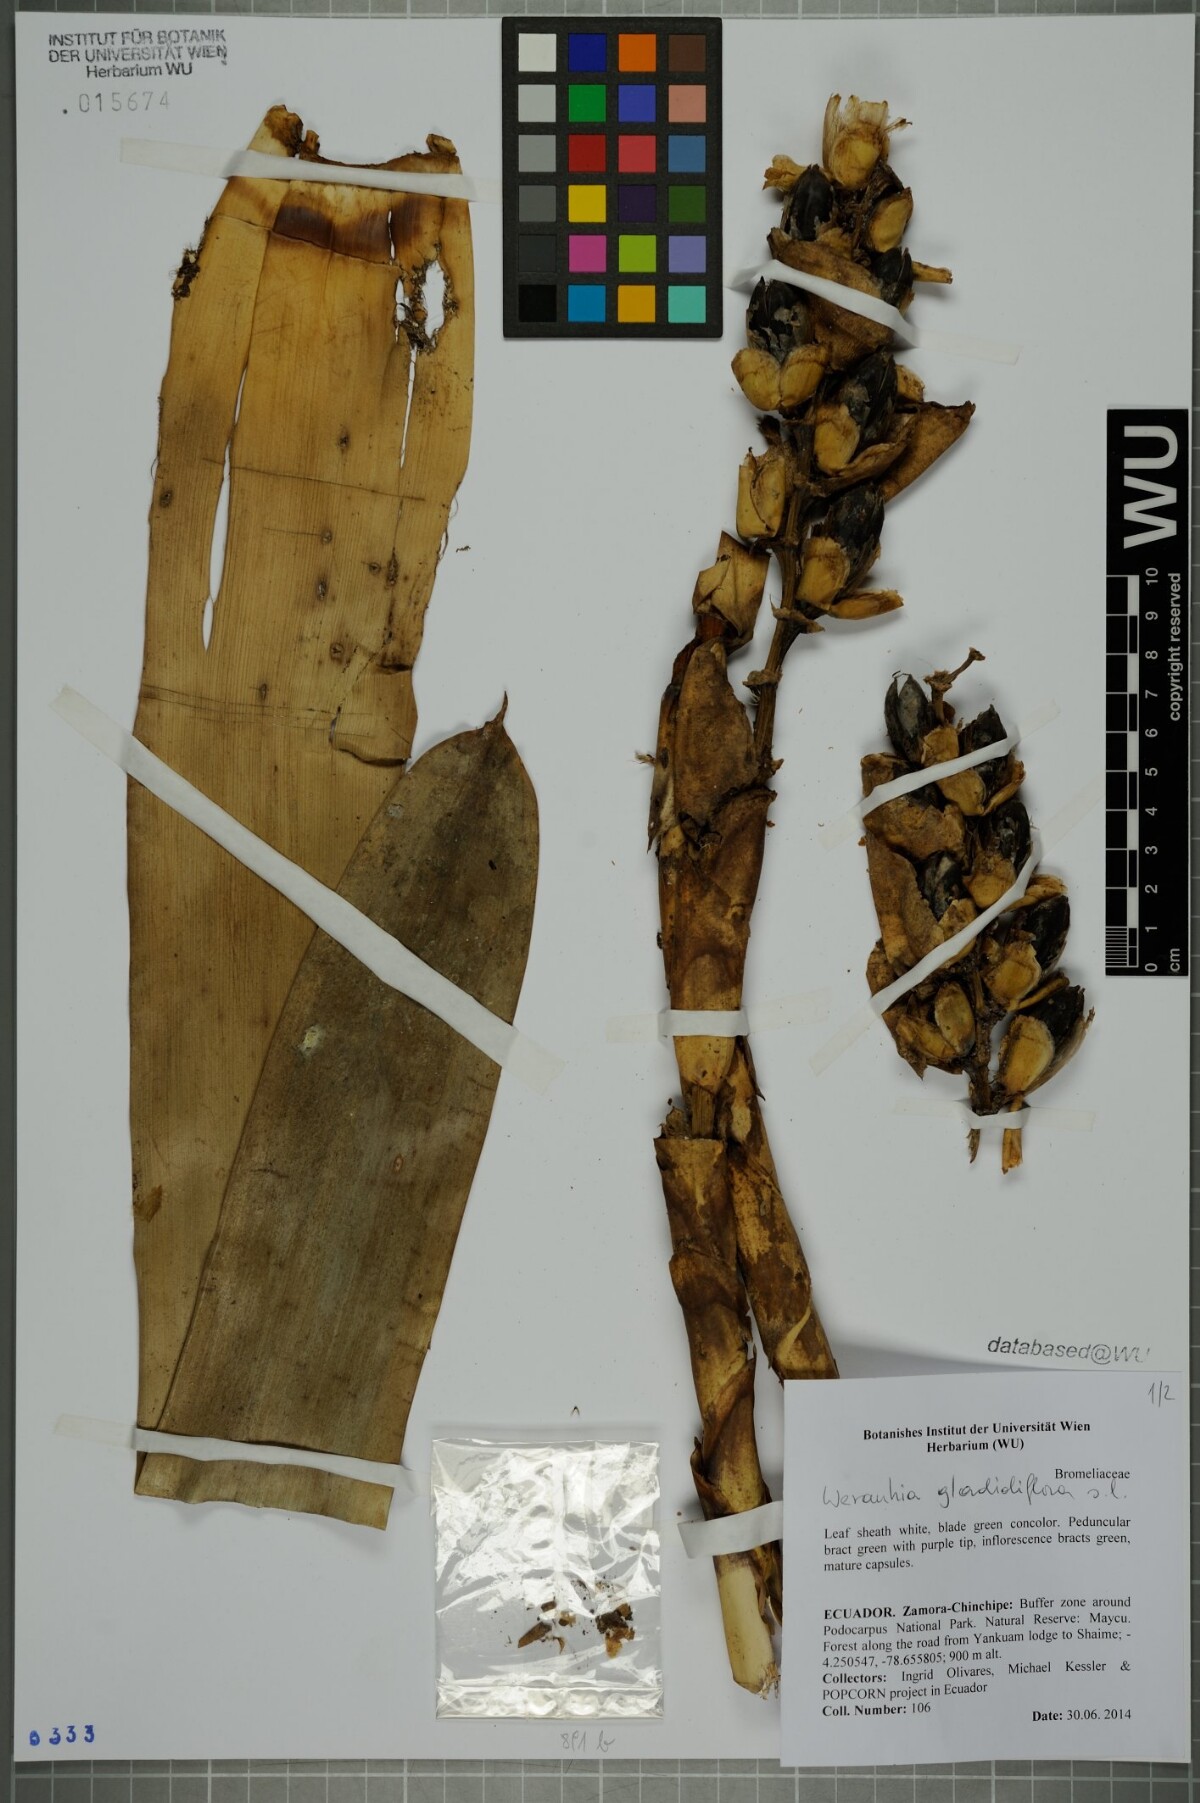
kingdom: Plantae
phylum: Tracheophyta
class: Liliopsida
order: Poales
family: Bromeliaceae
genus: Werauhia
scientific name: Werauhia gladioliflora
